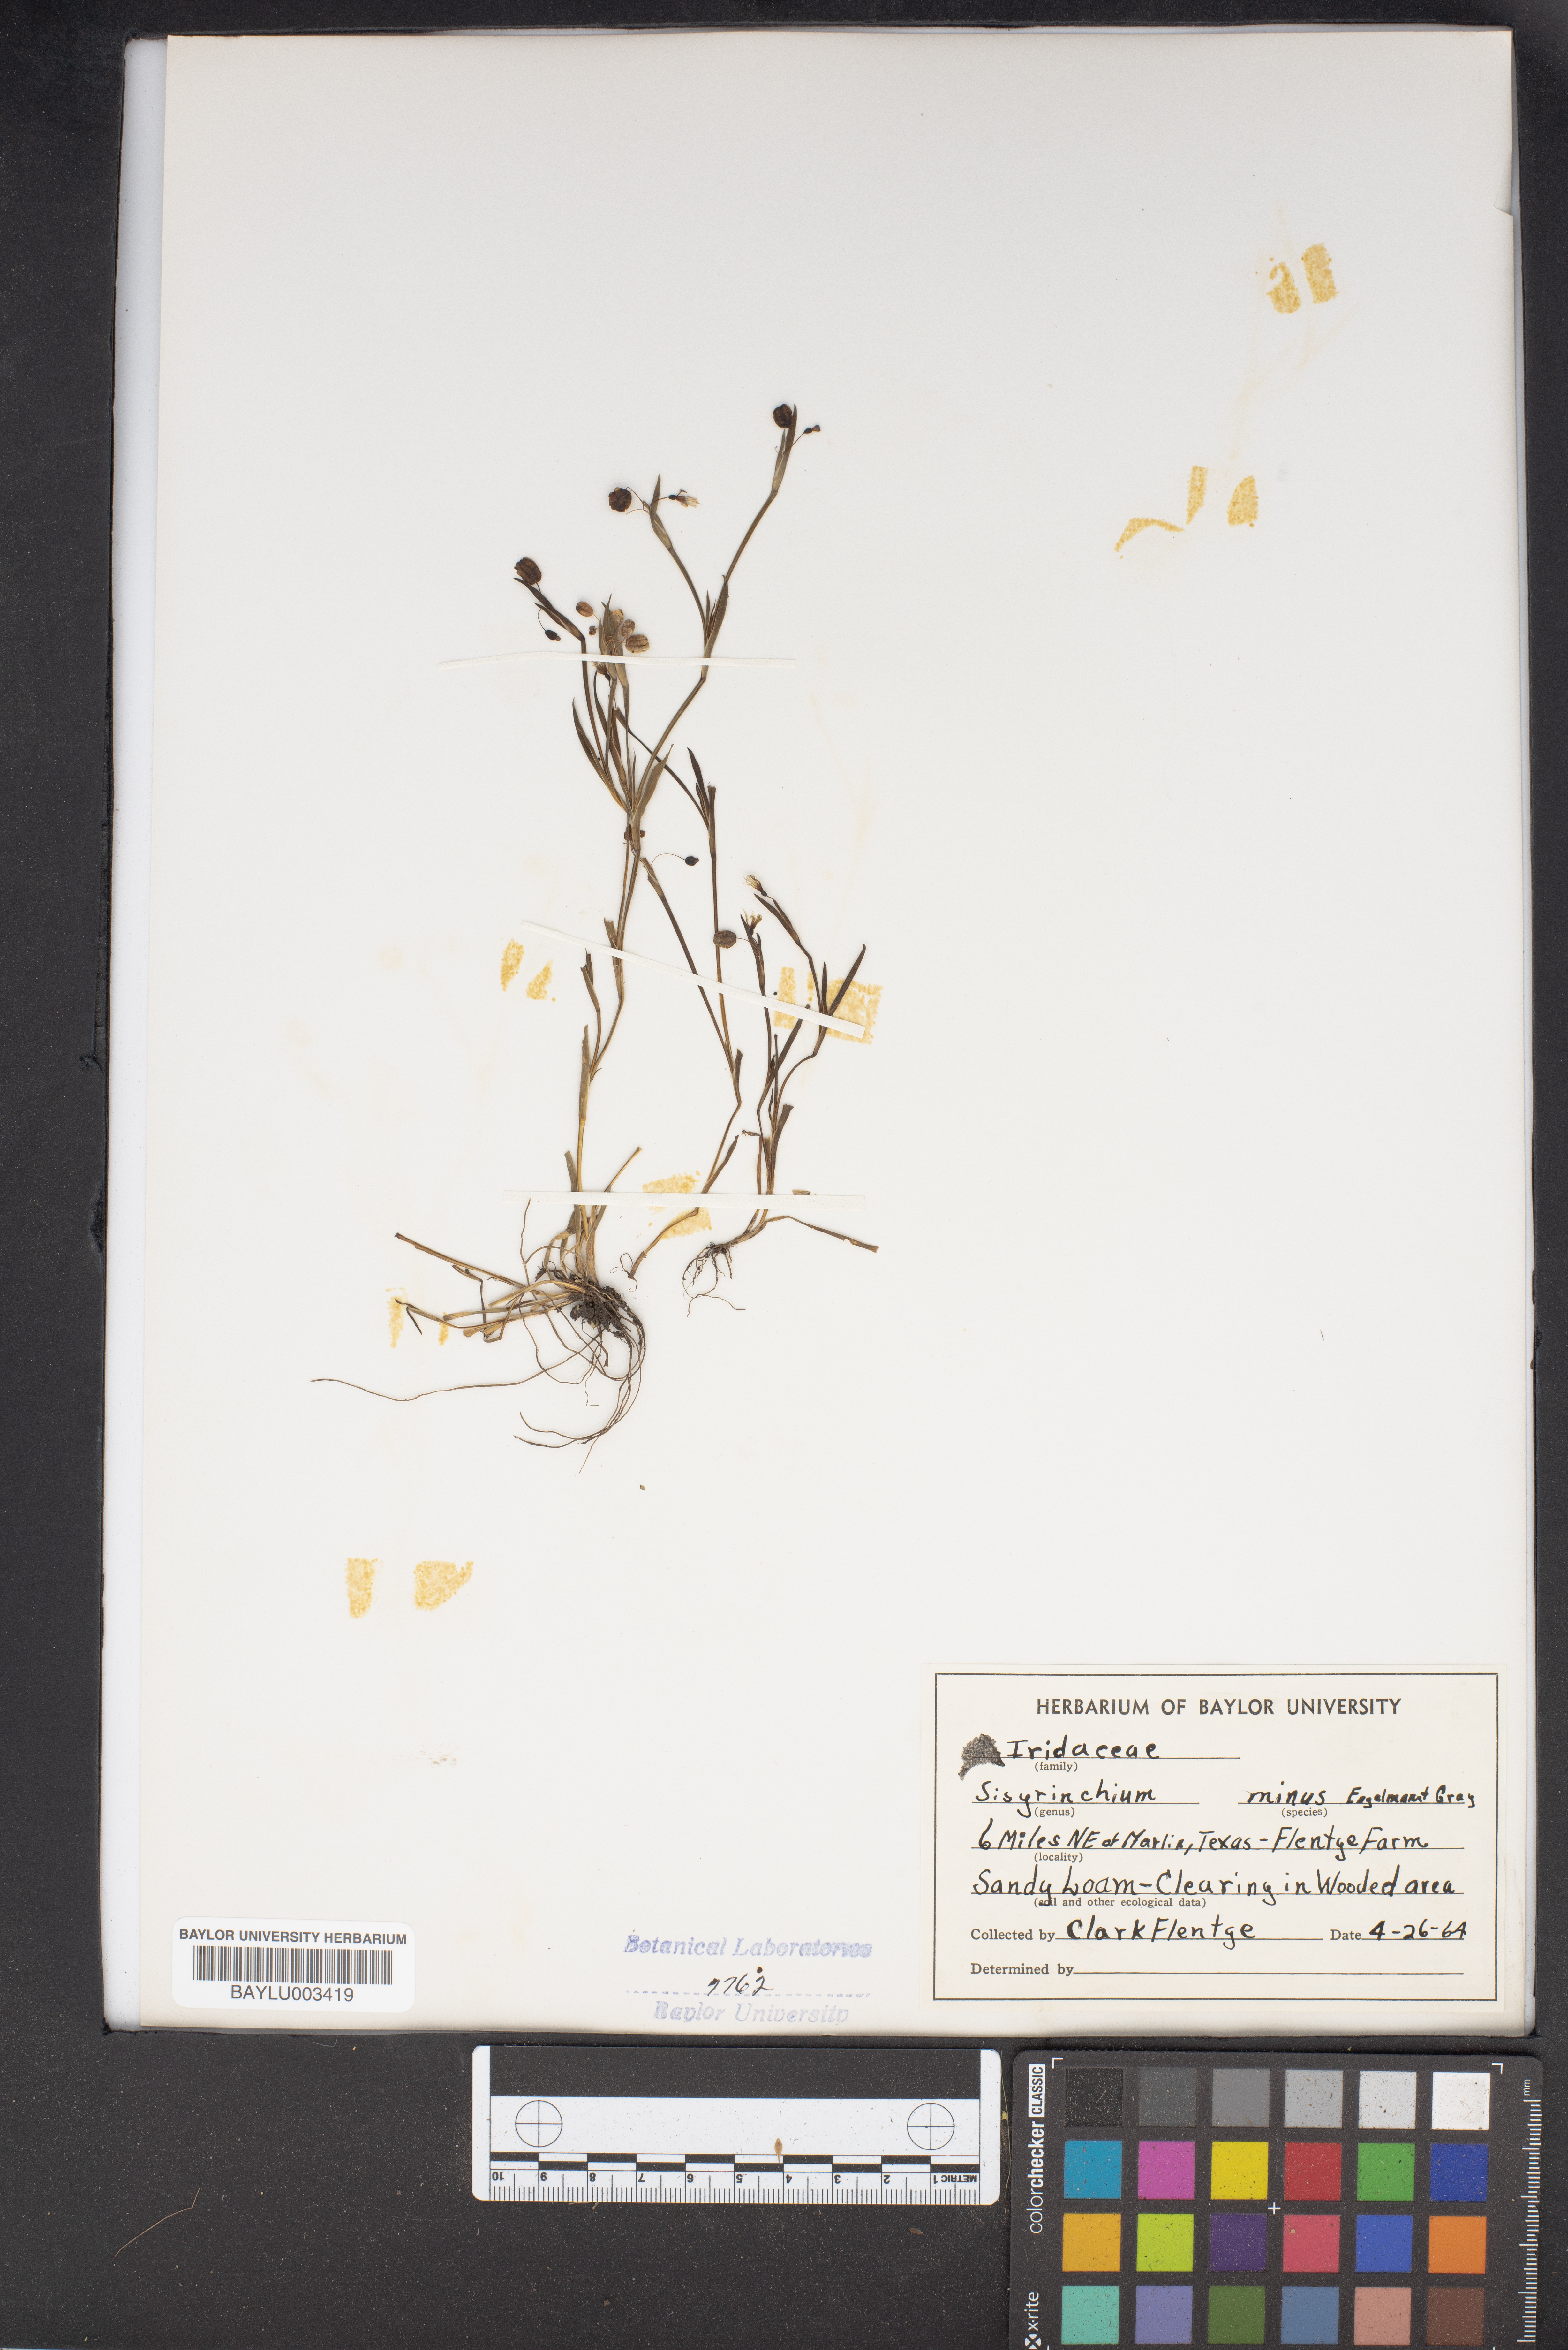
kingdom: Plantae
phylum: Tracheophyta
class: Liliopsida
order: Asparagales
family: Iridaceae
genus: Sisyrinchium
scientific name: Sisyrinchium minus
